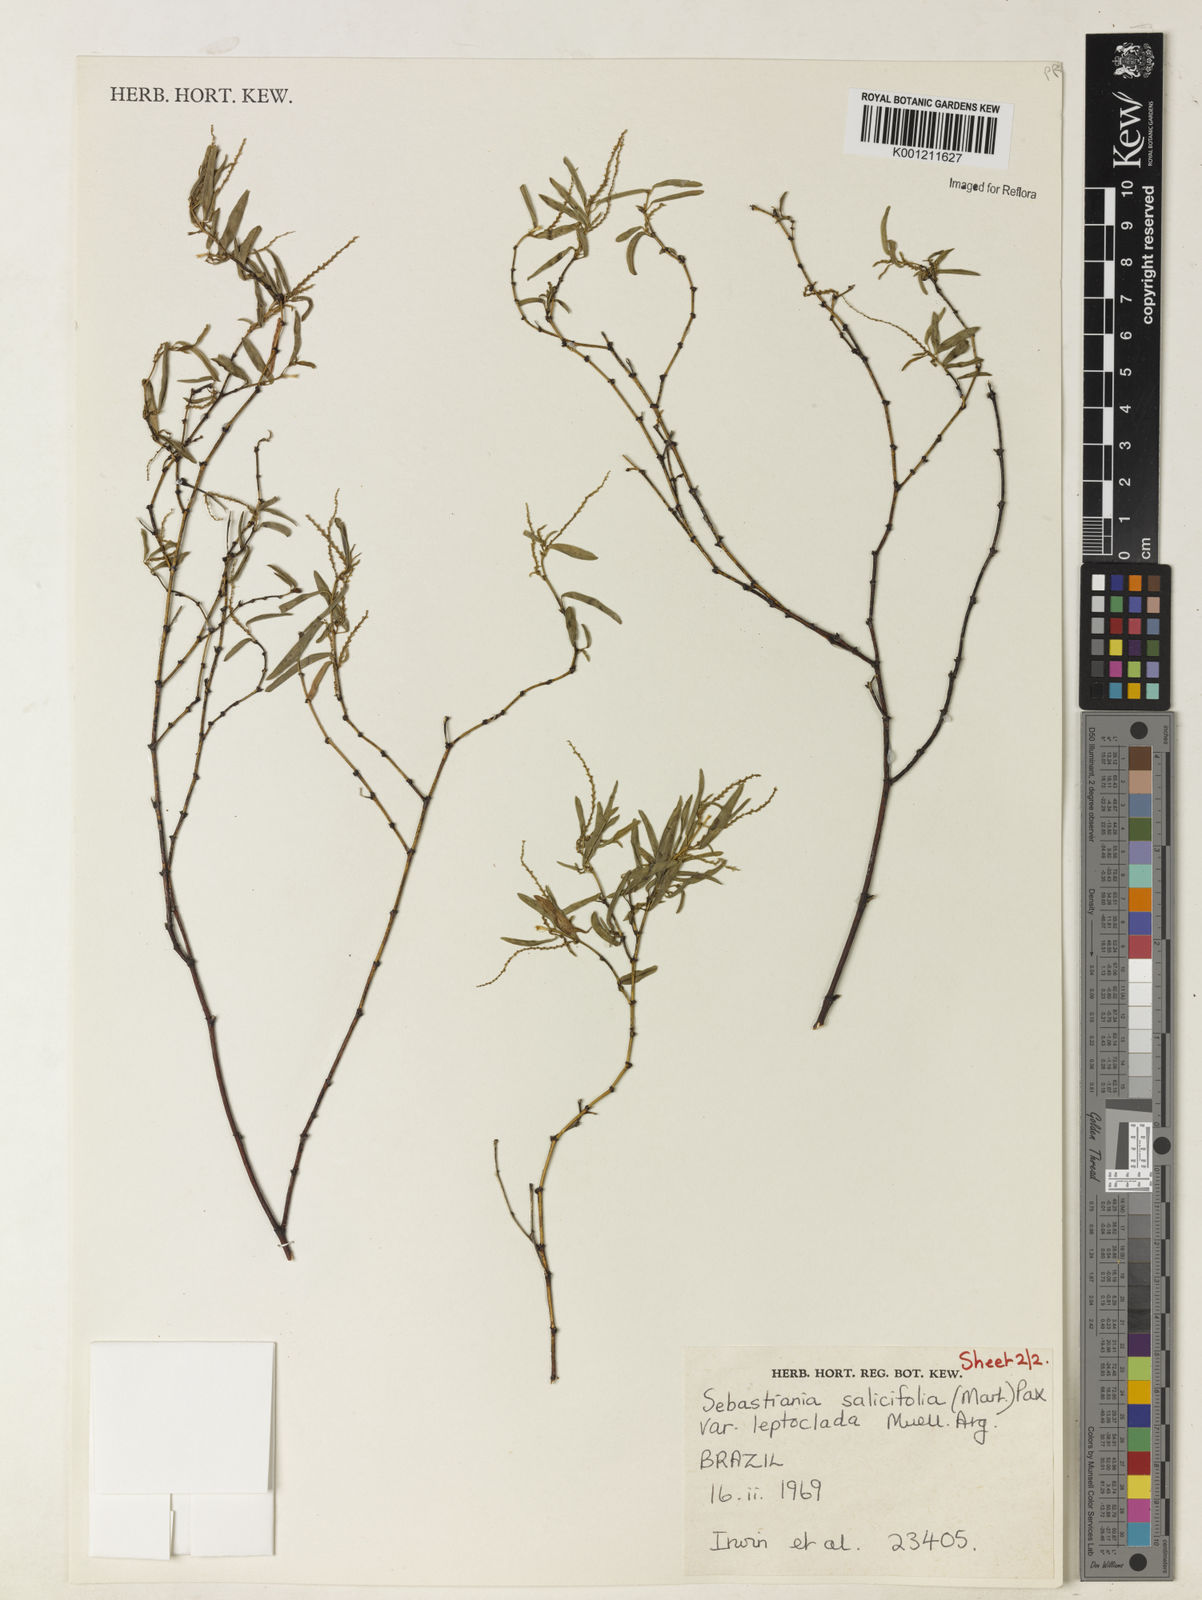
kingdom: Plantae
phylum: Tracheophyta
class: Magnoliopsida
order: Malpighiales
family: Euphorbiaceae
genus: Microstachys
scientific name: Microstachys
